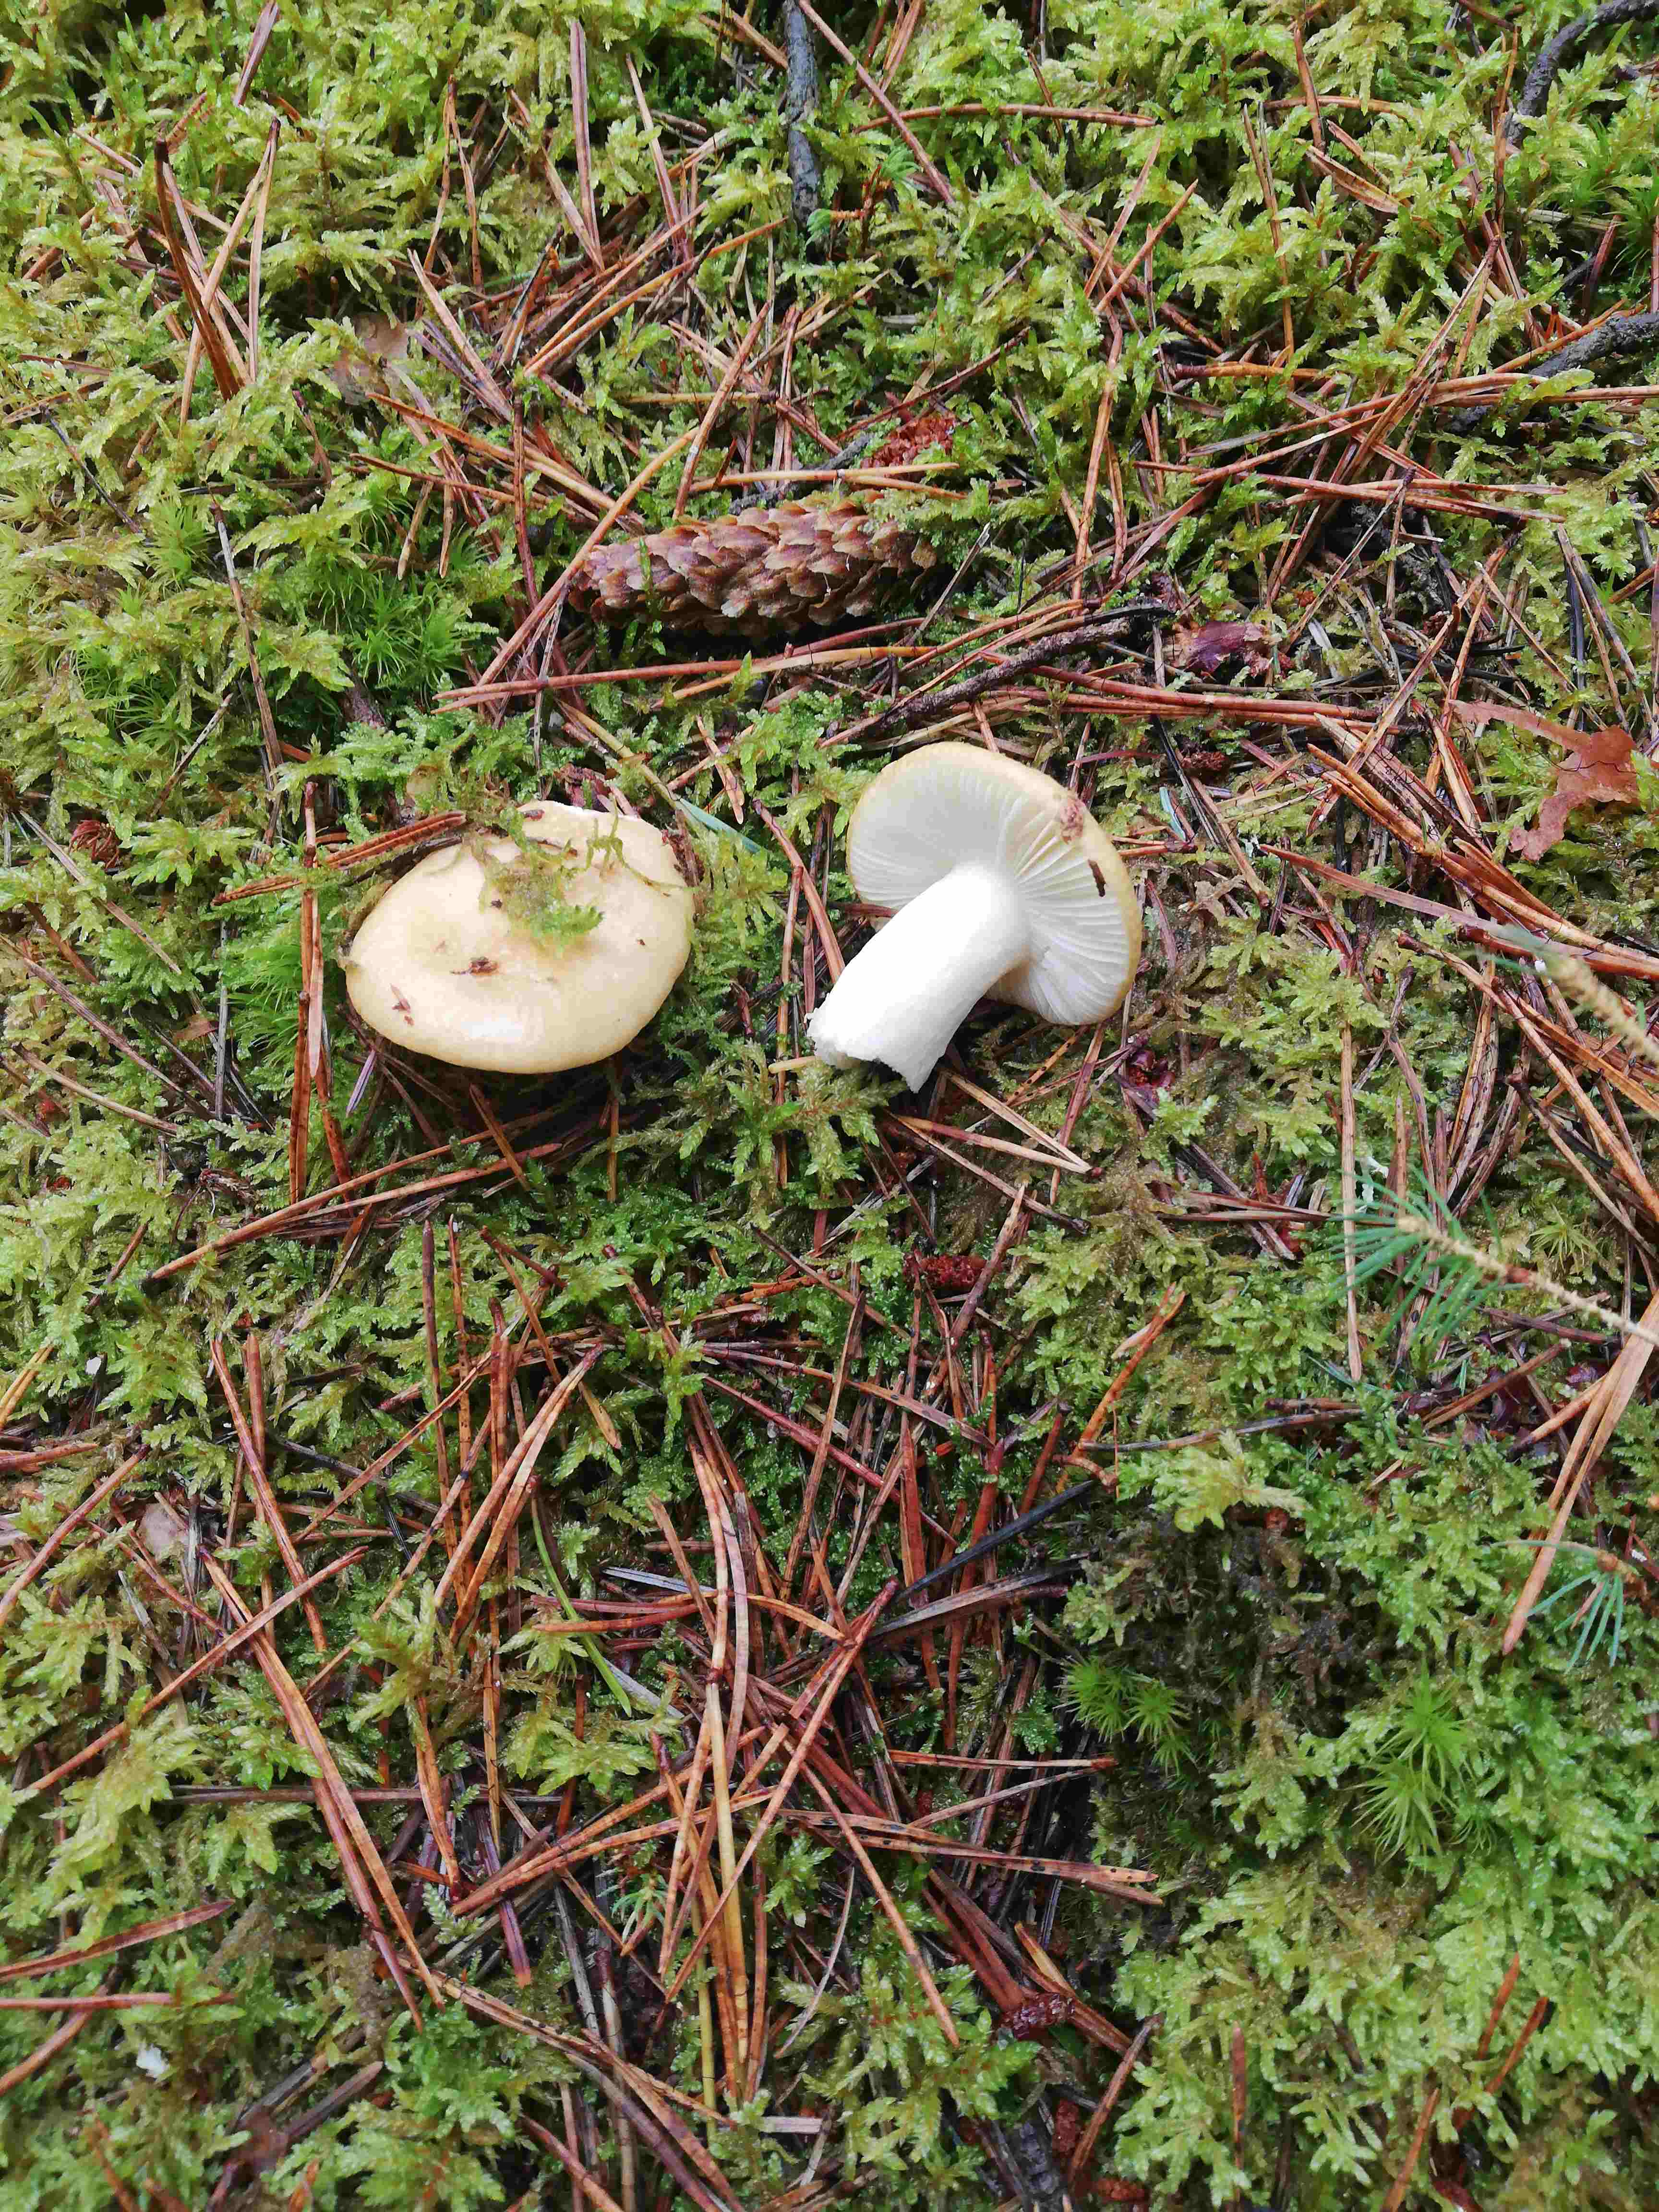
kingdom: Fungi
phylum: Basidiomycota
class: Agaricomycetes
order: Russulales
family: Russulaceae
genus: Russula
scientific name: Russula ochroleuca
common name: okkergul skørhat
